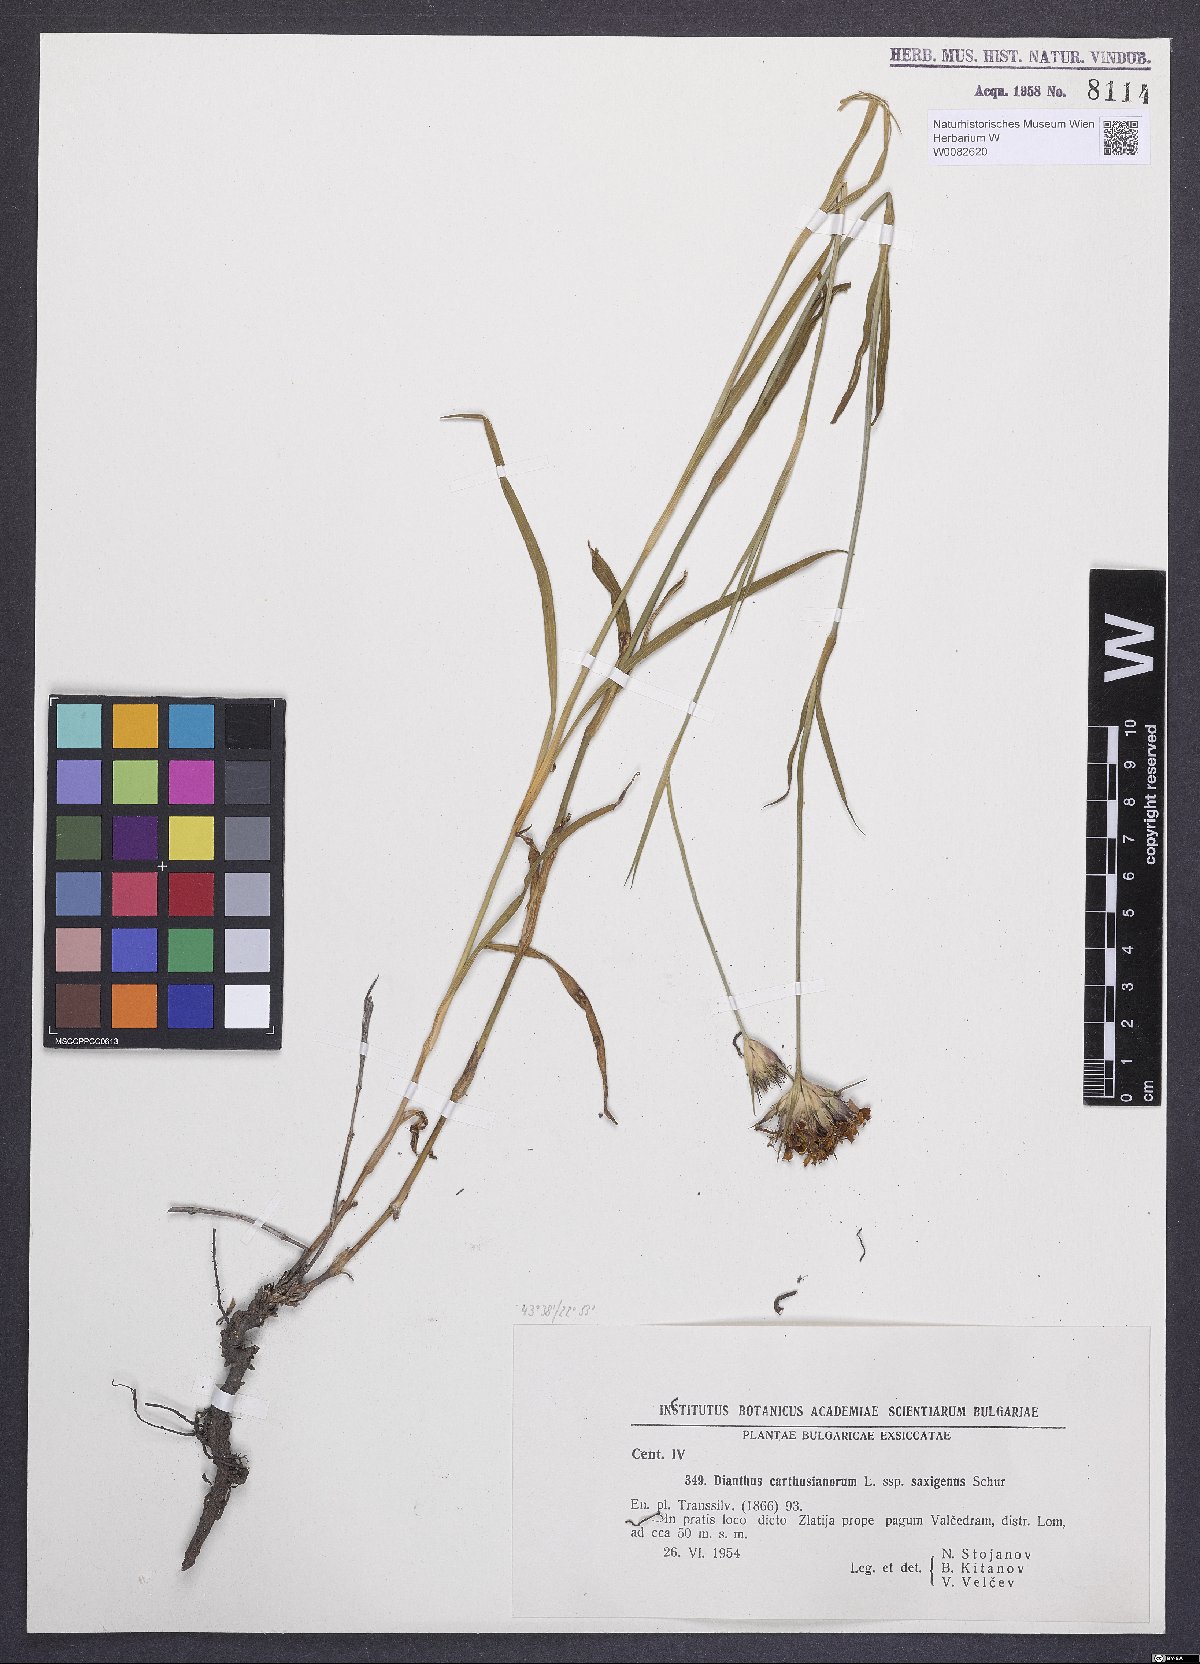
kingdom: Plantae
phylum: Tracheophyta
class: Magnoliopsida
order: Caryophyllales
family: Caryophyllaceae
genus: Dianthus
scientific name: Dianthus carthusianorum
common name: Carthusian pink
